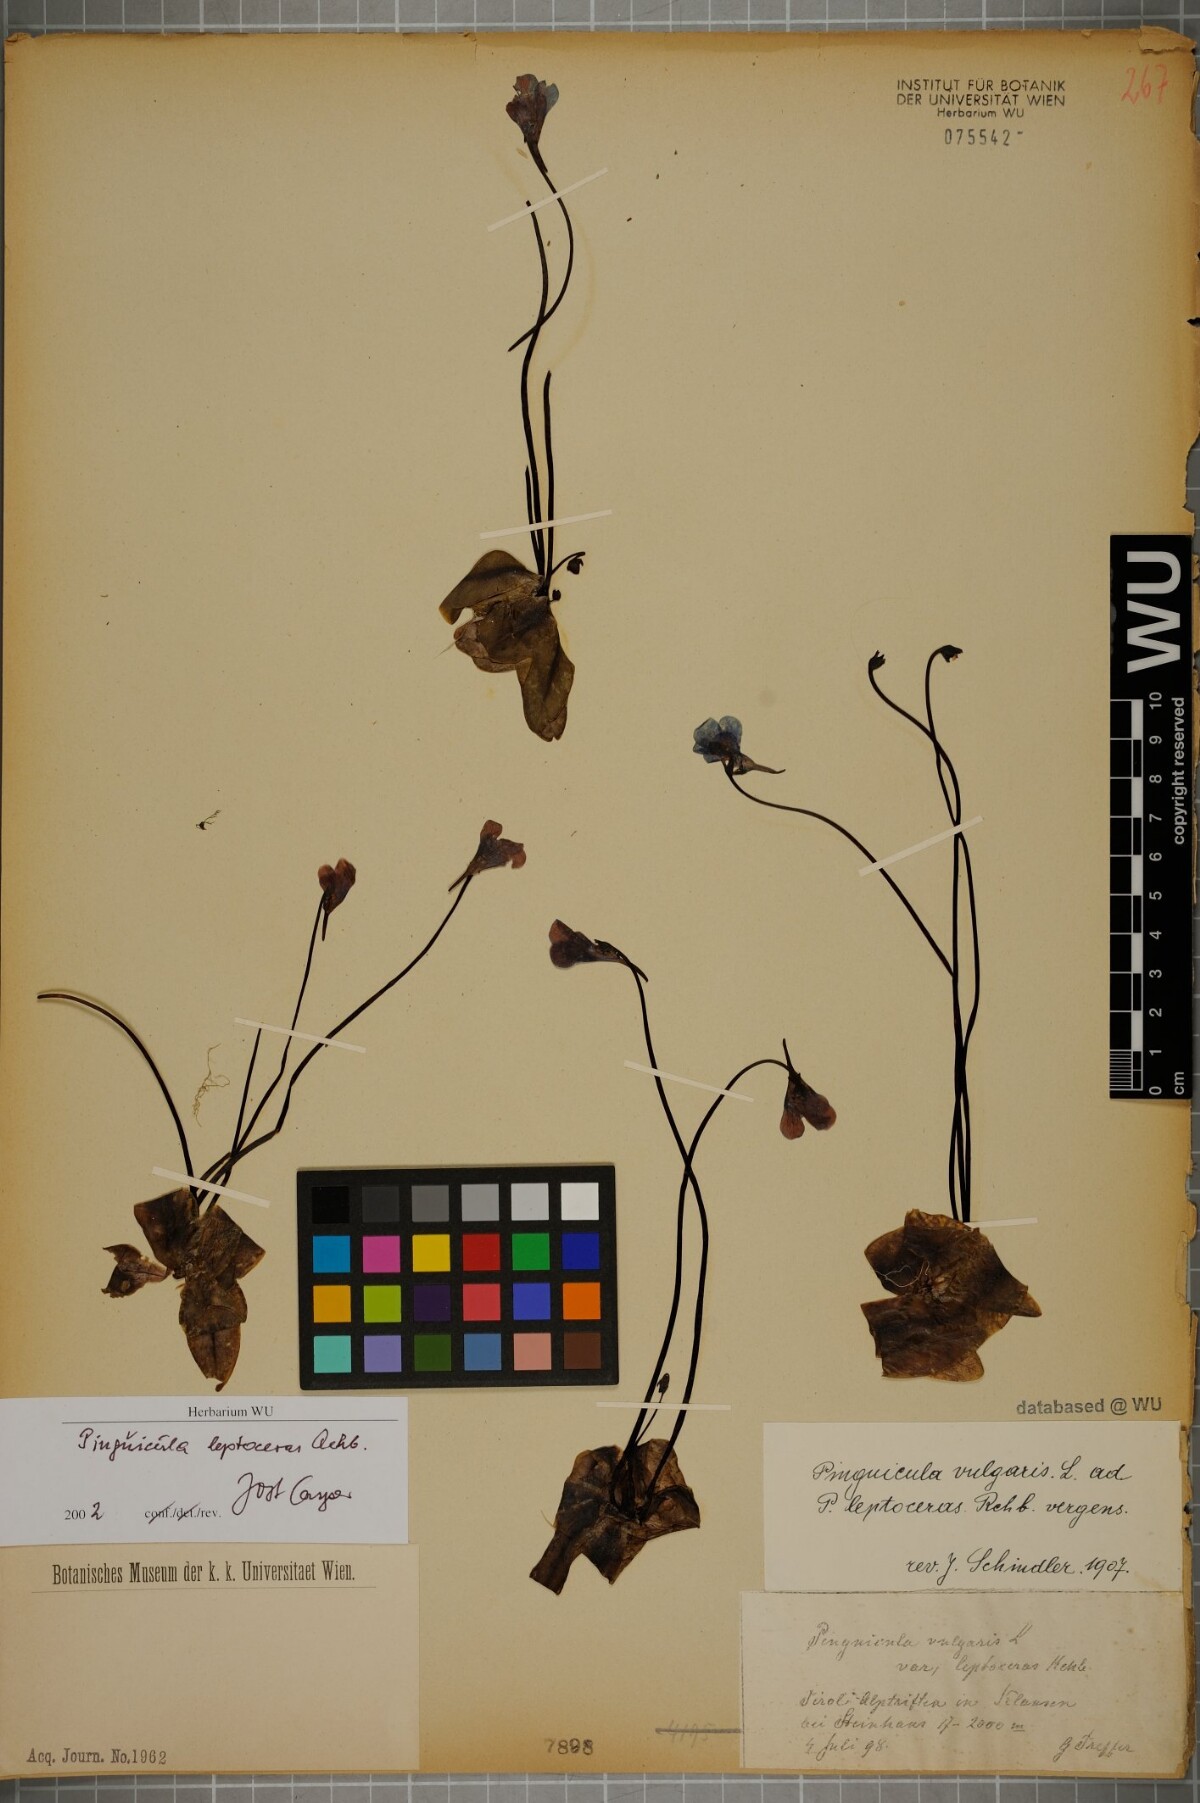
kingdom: Plantae
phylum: Tracheophyta
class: Magnoliopsida
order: Lamiales
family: Lentibulariaceae
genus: Pinguicula
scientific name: Pinguicula leptoceras
